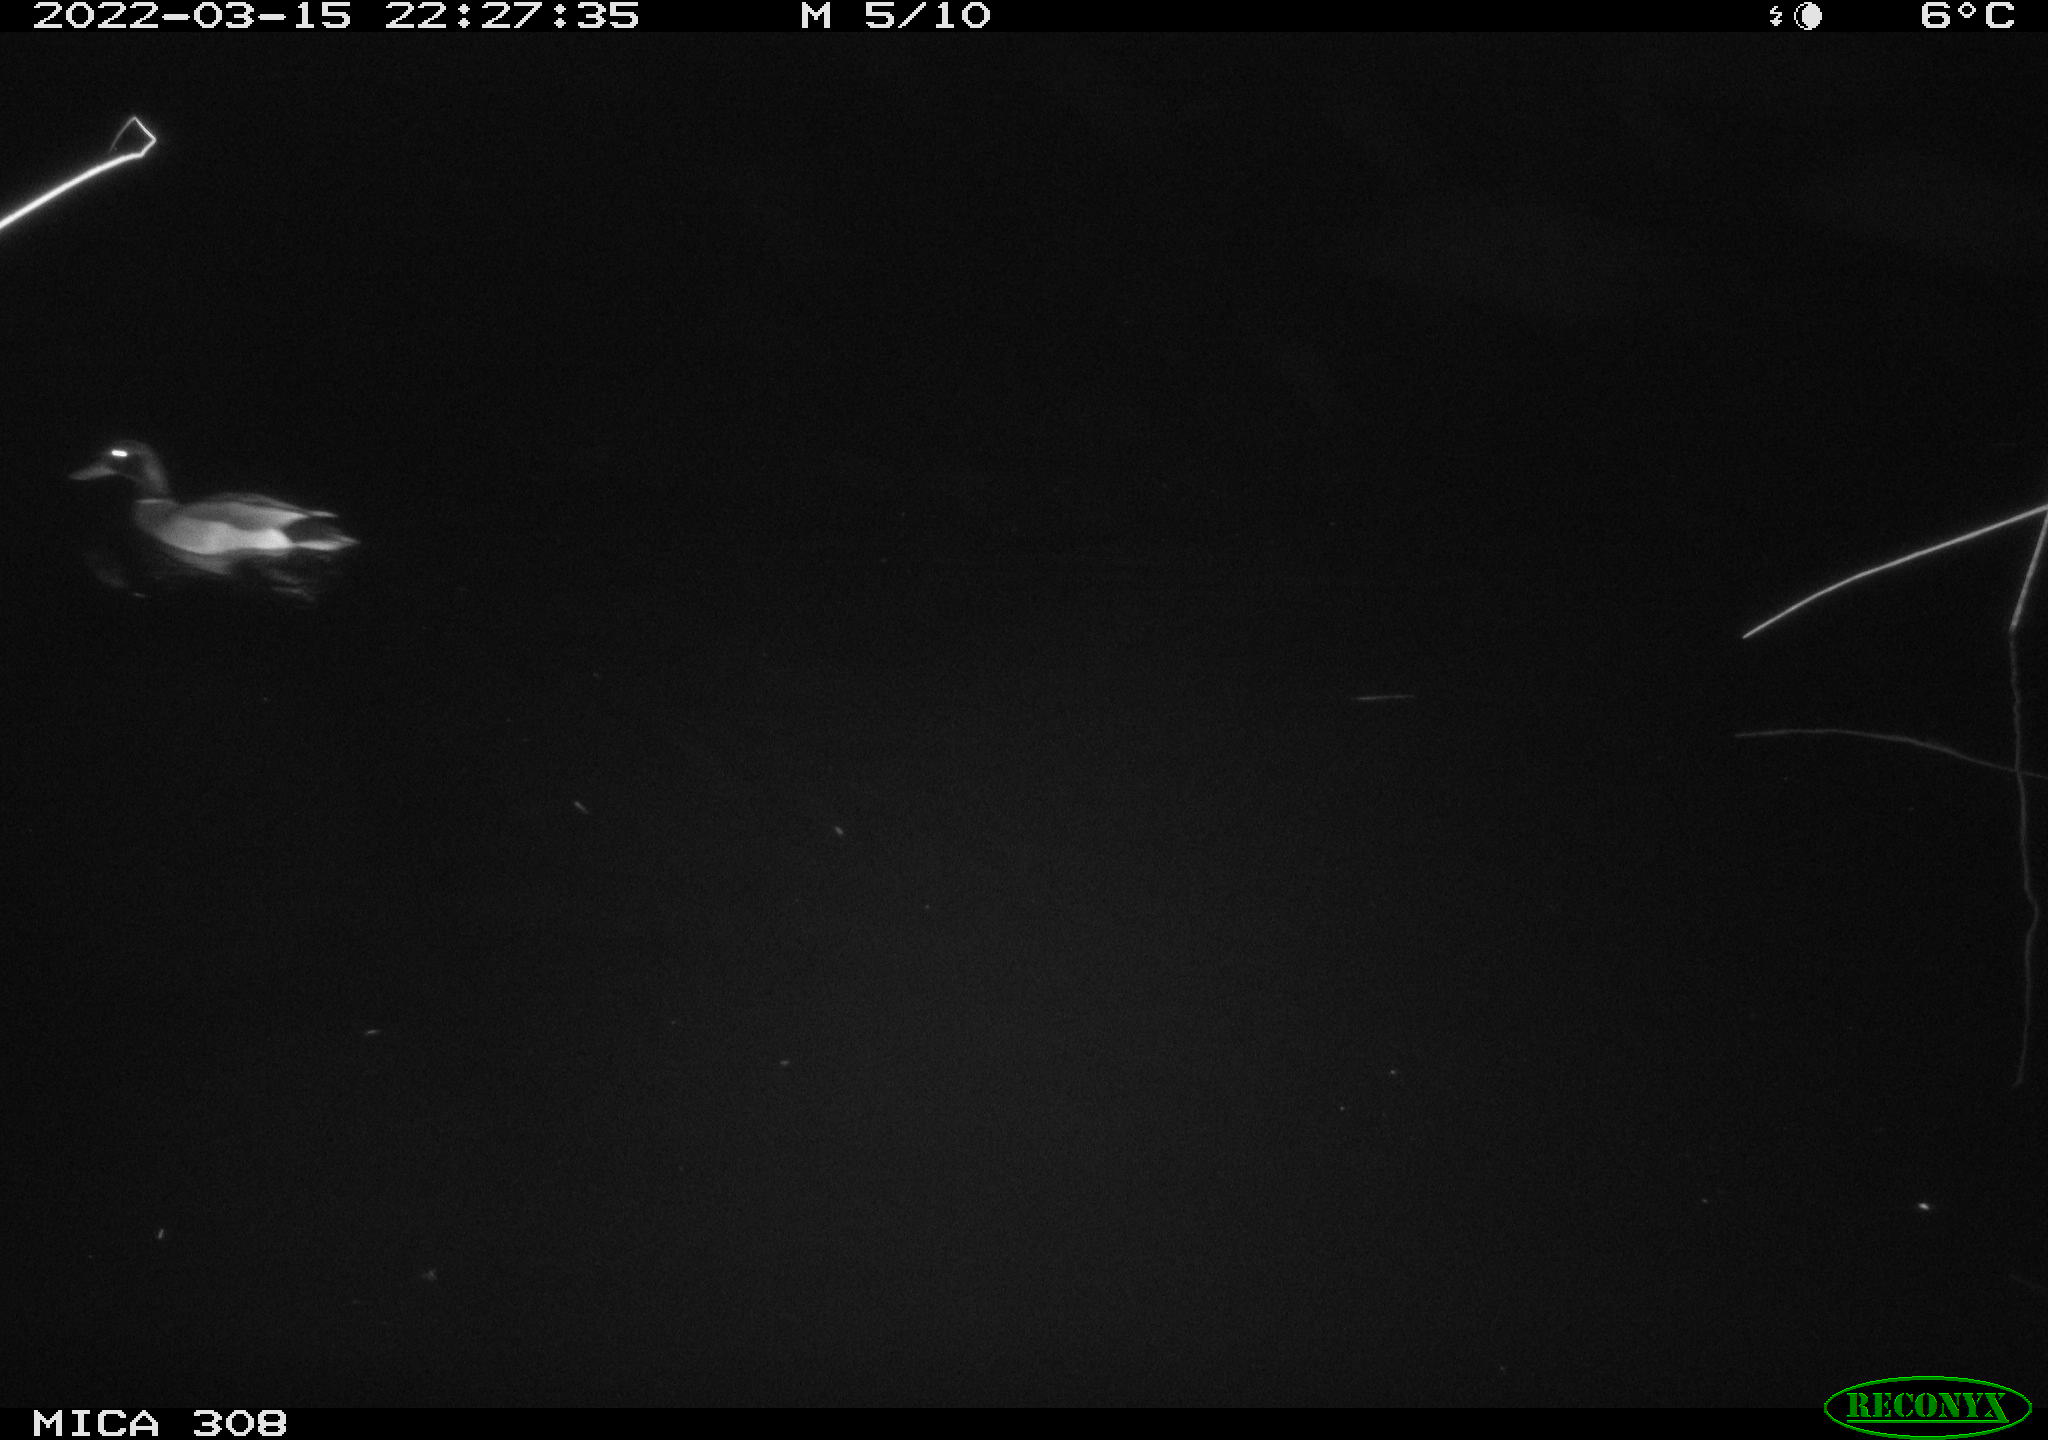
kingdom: Animalia
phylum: Chordata
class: Aves
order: Anseriformes
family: Anatidae
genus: Anas
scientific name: Anas platyrhynchos
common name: Mallard
